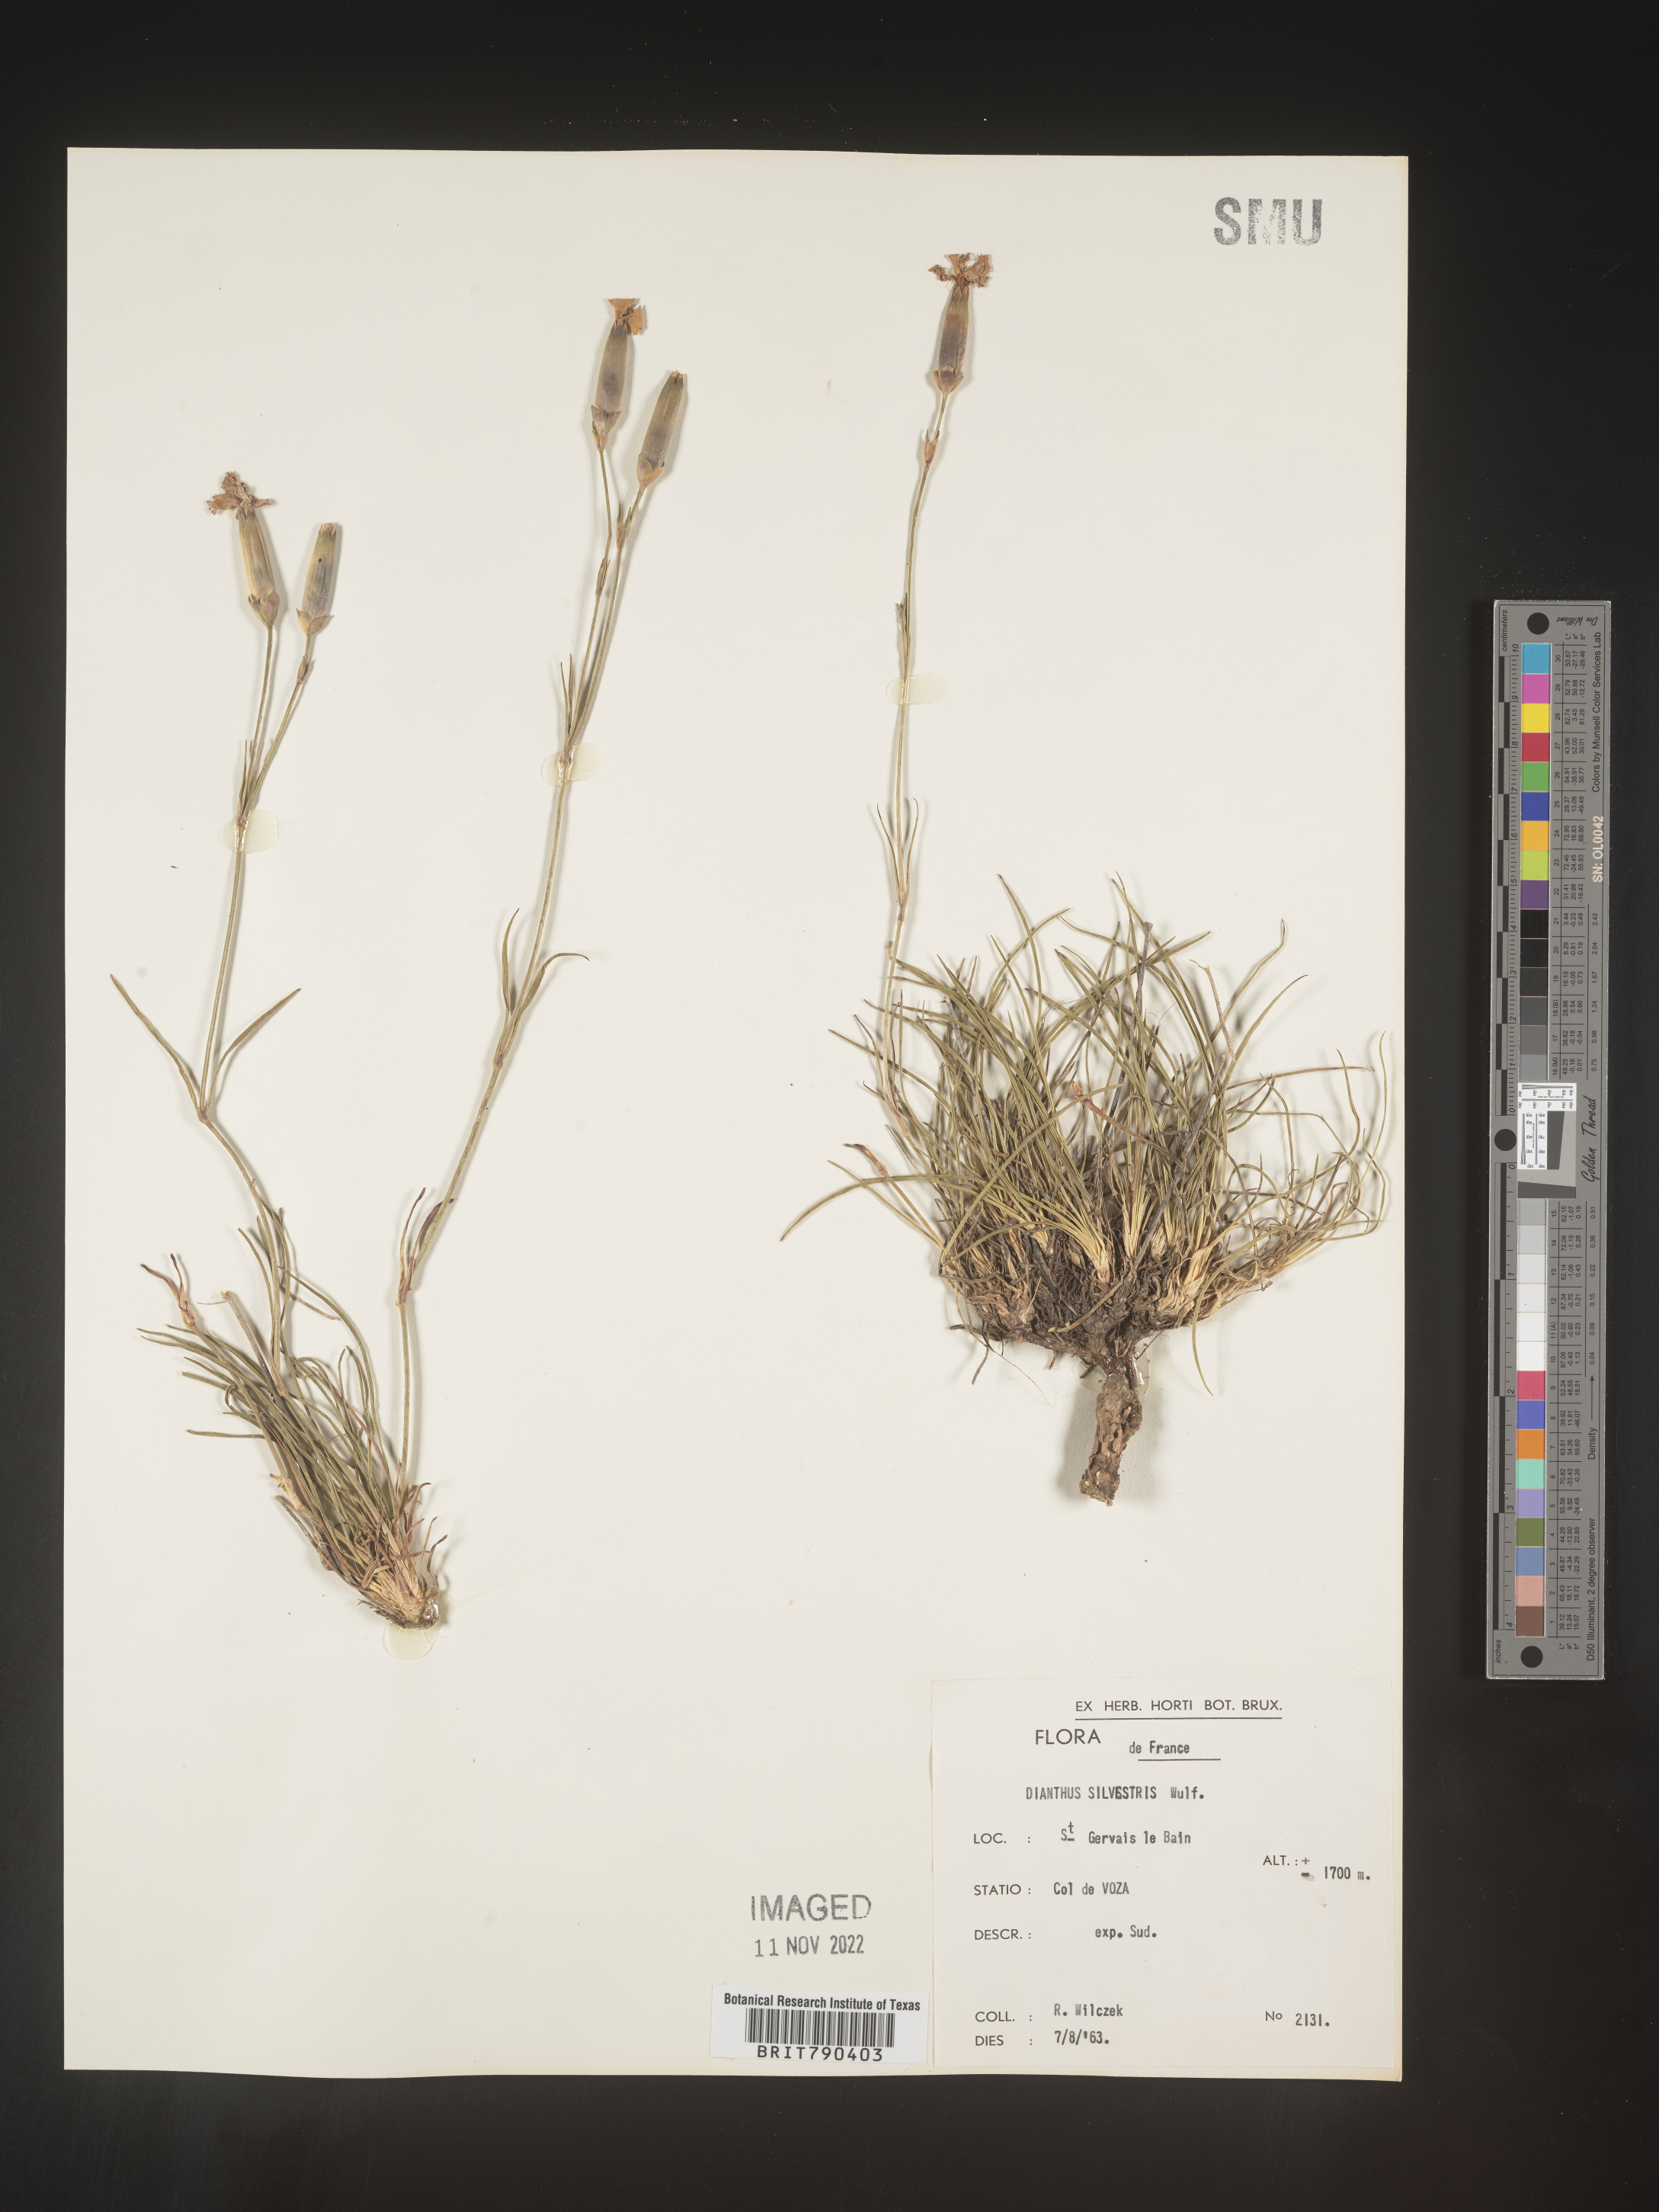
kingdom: Plantae
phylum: Tracheophyta
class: Magnoliopsida
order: Caryophyllales
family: Caryophyllaceae
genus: Dianthus
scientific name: Dianthus
